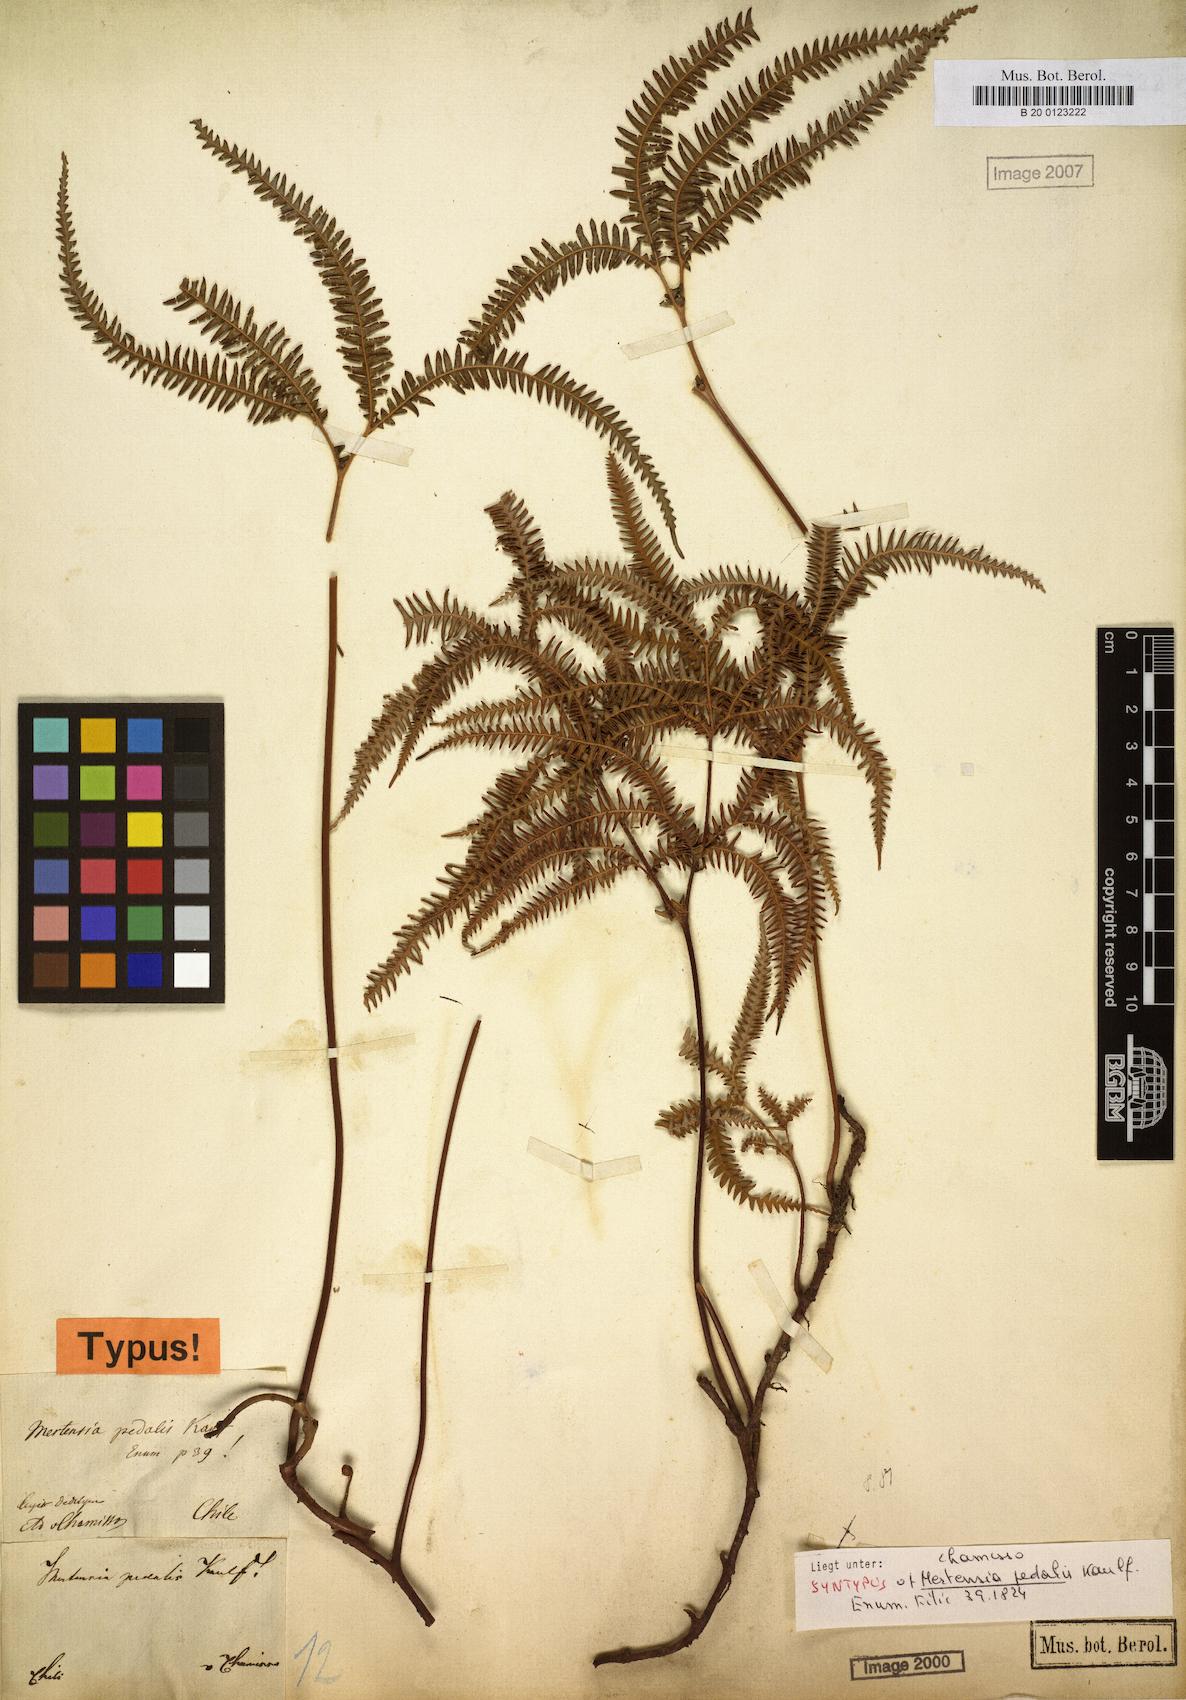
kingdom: Plantae
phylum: Tracheophyta
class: Polypodiopsida
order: Gleicheniales
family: Gleicheniaceae
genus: Sticherus
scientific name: Sticherus squamulosus
